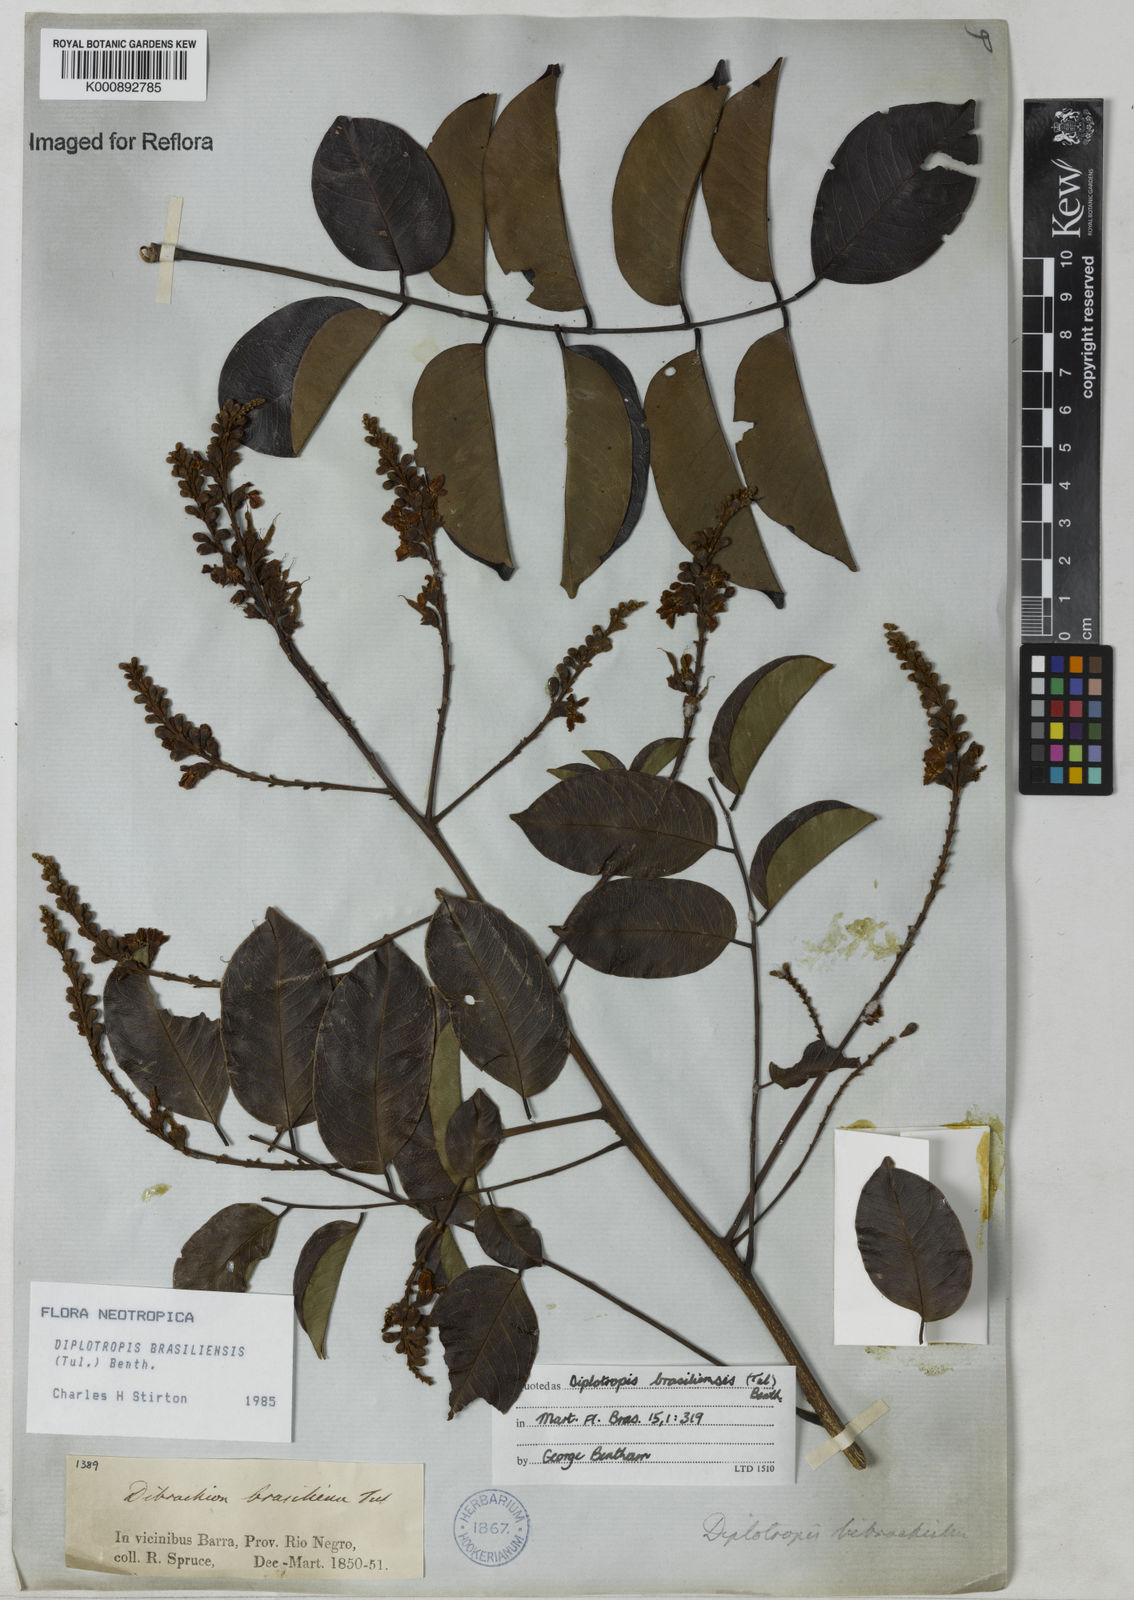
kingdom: Plantae
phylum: Tracheophyta
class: Magnoliopsida
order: Fabales
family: Fabaceae
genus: Diplotropis
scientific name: Diplotropis brasiliensis
